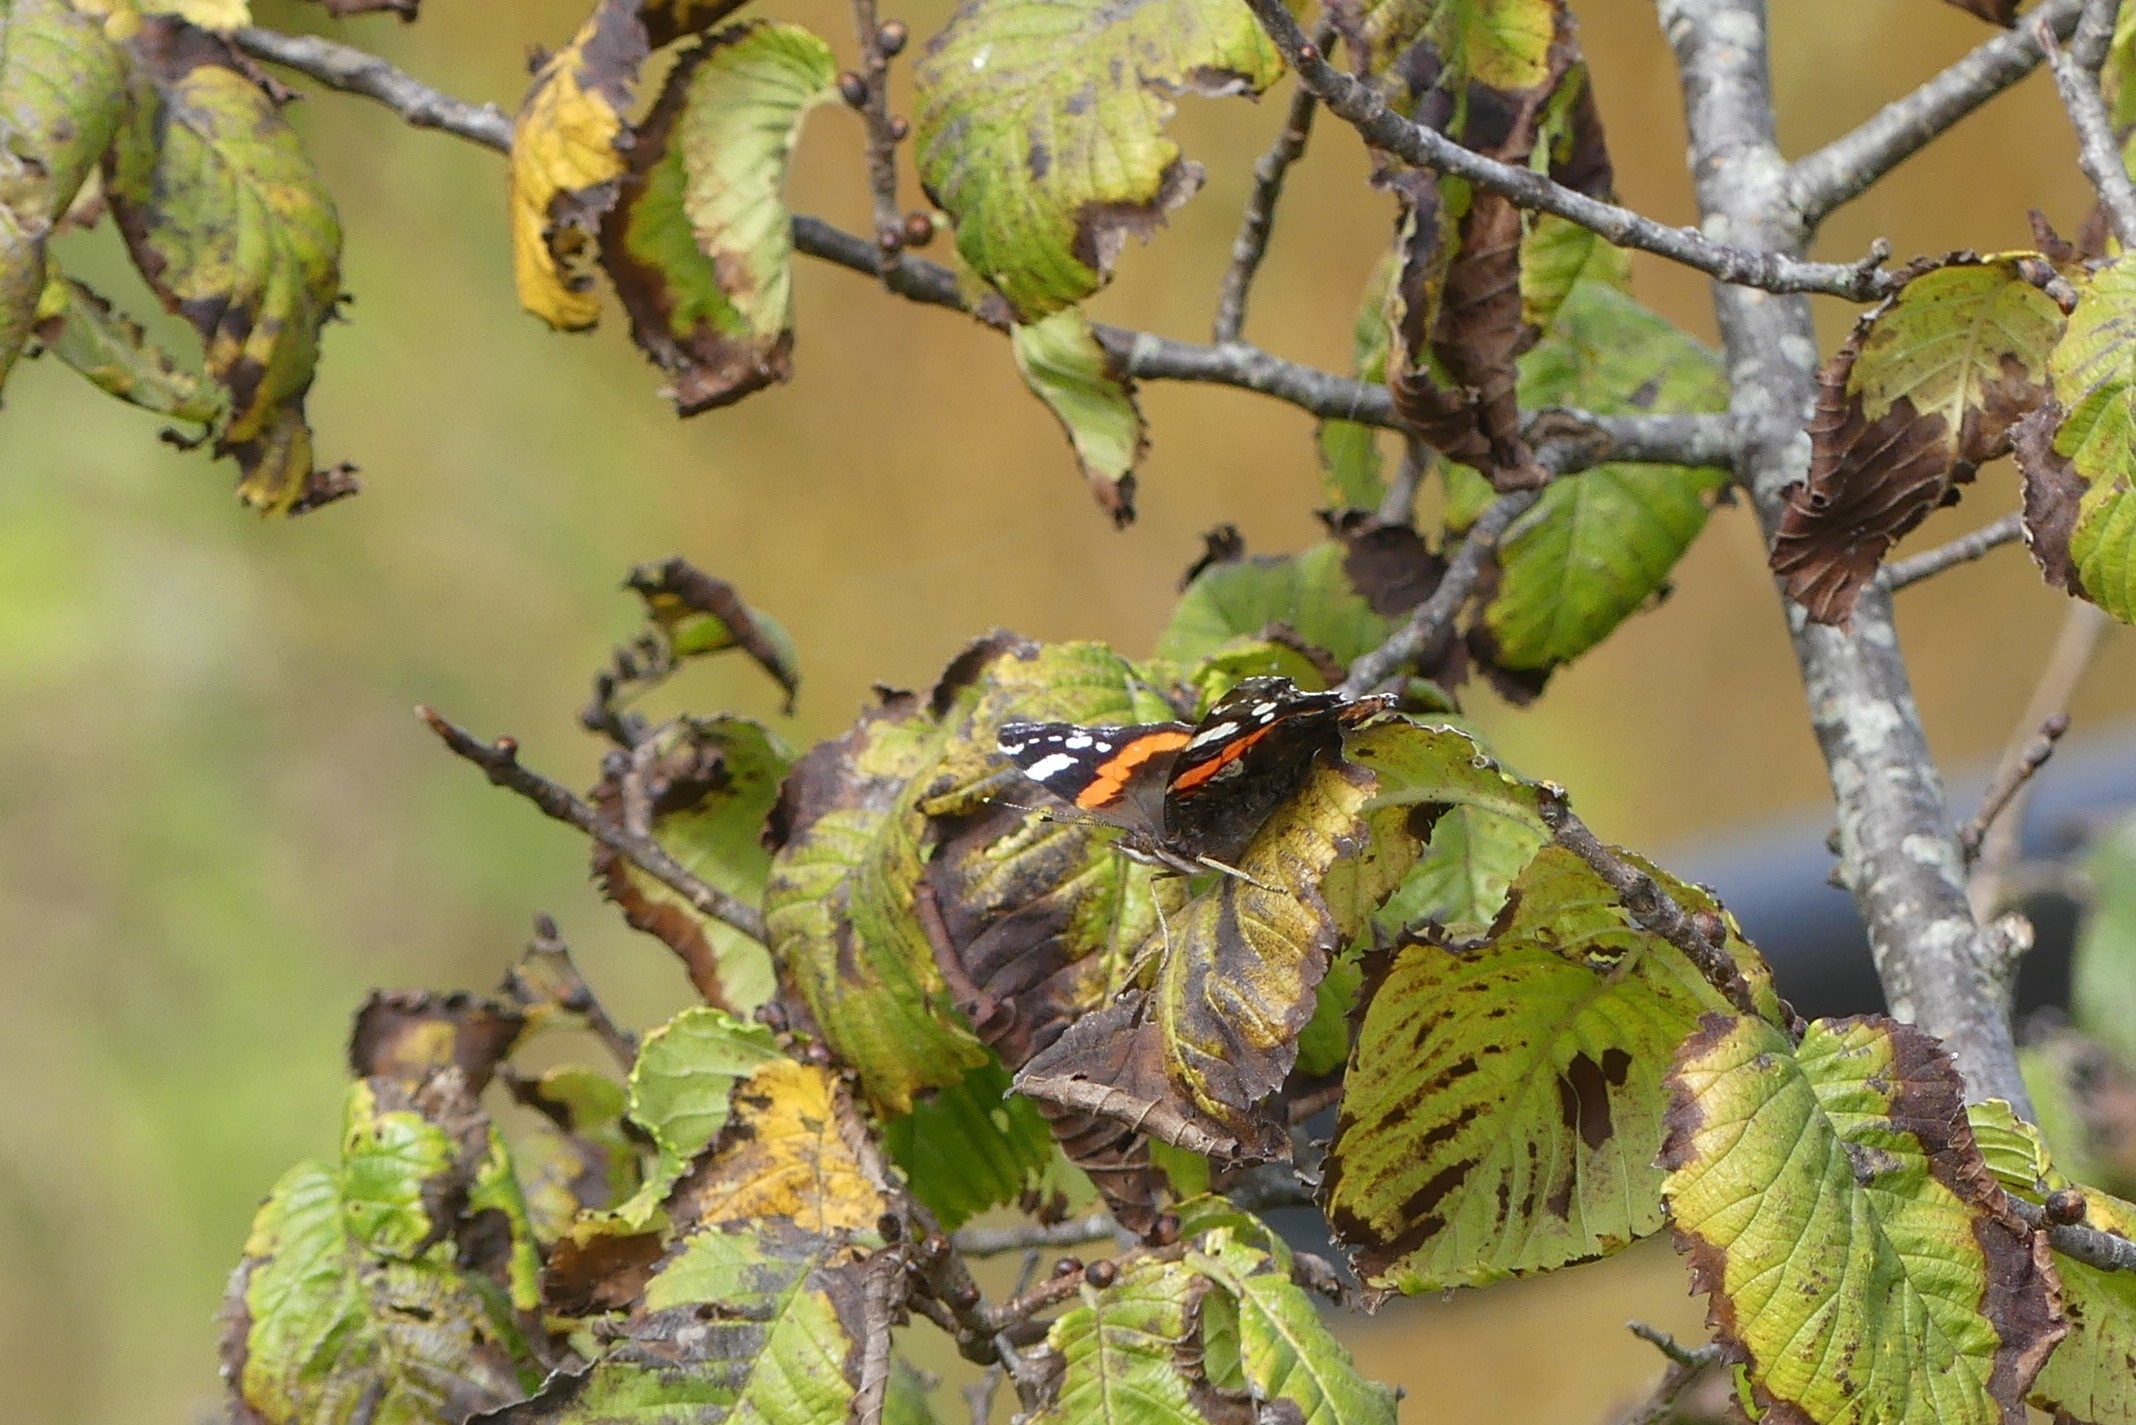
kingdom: Animalia
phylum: Arthropoda
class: Insecta
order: Lepidoptera
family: Nymphalidae
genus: Vanessa
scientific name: Vanessa atalanta
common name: Admiral
